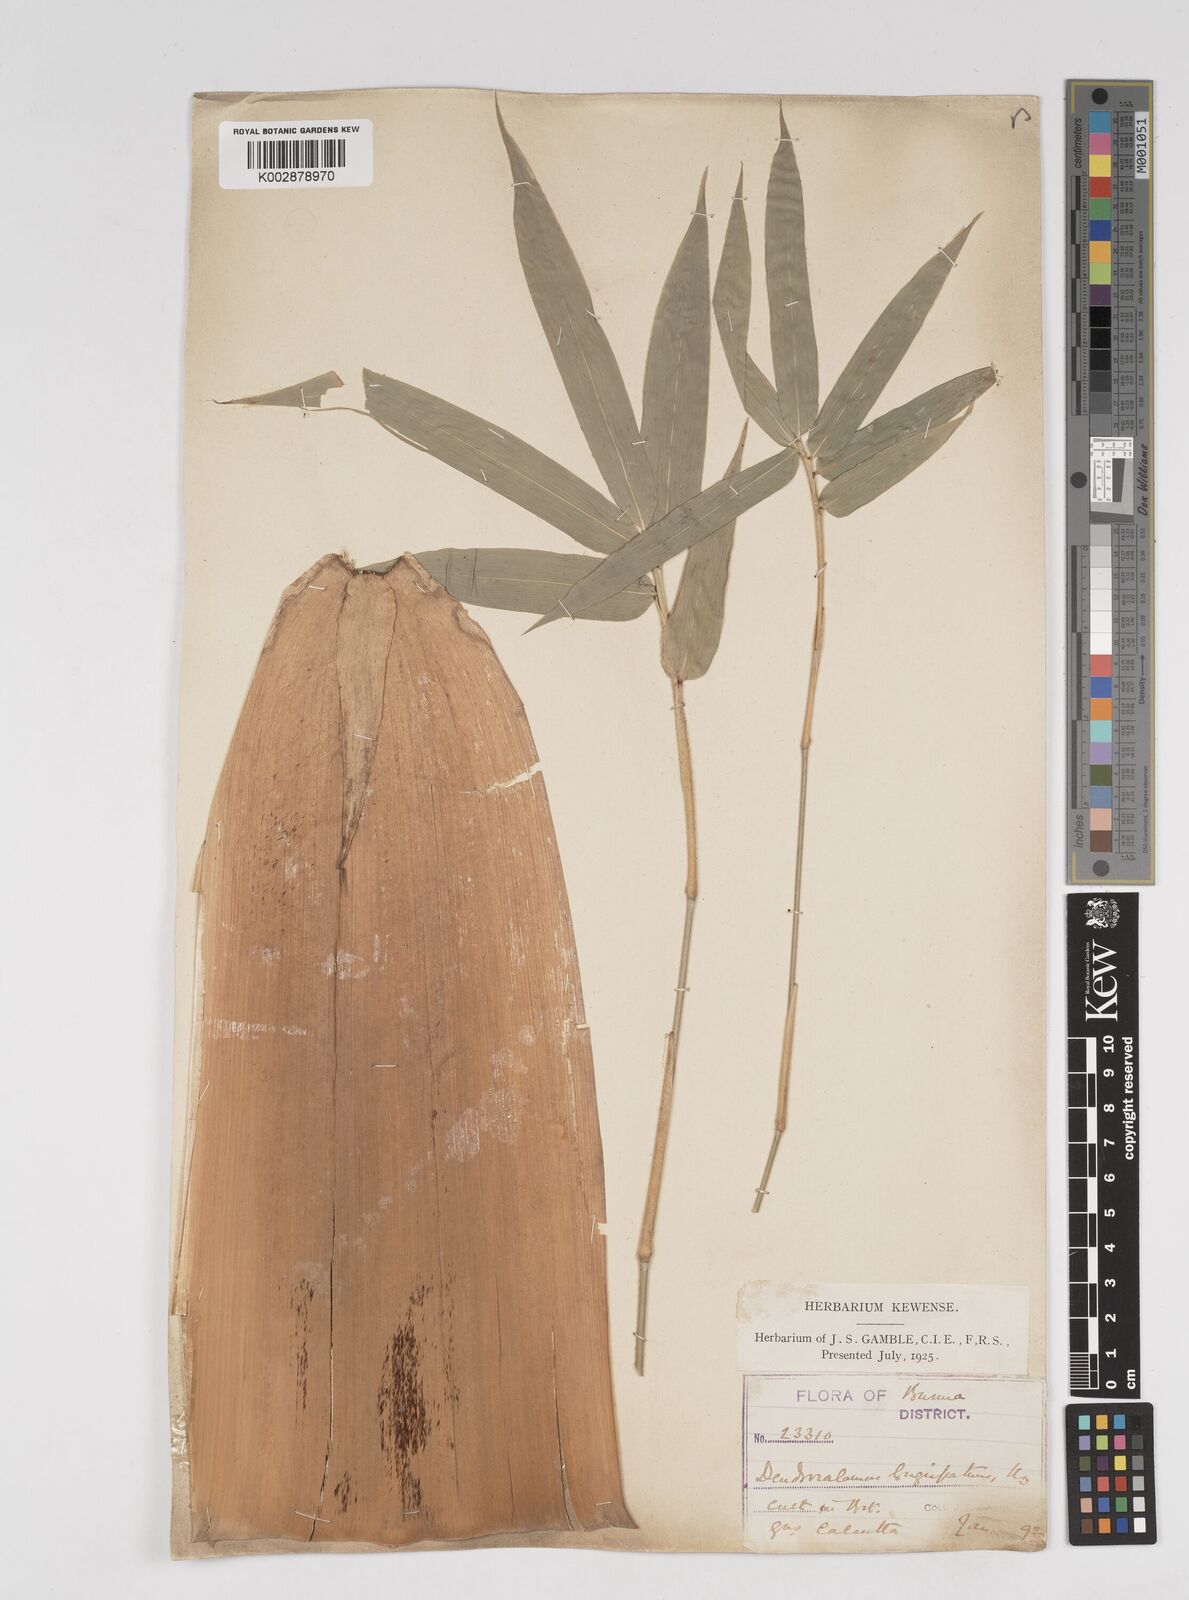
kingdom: Plantae
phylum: Tracheophyta
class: Liliopsida
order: Poales
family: Poaceae
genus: Dendrocalamus
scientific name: Dendrocalamus longispathus
